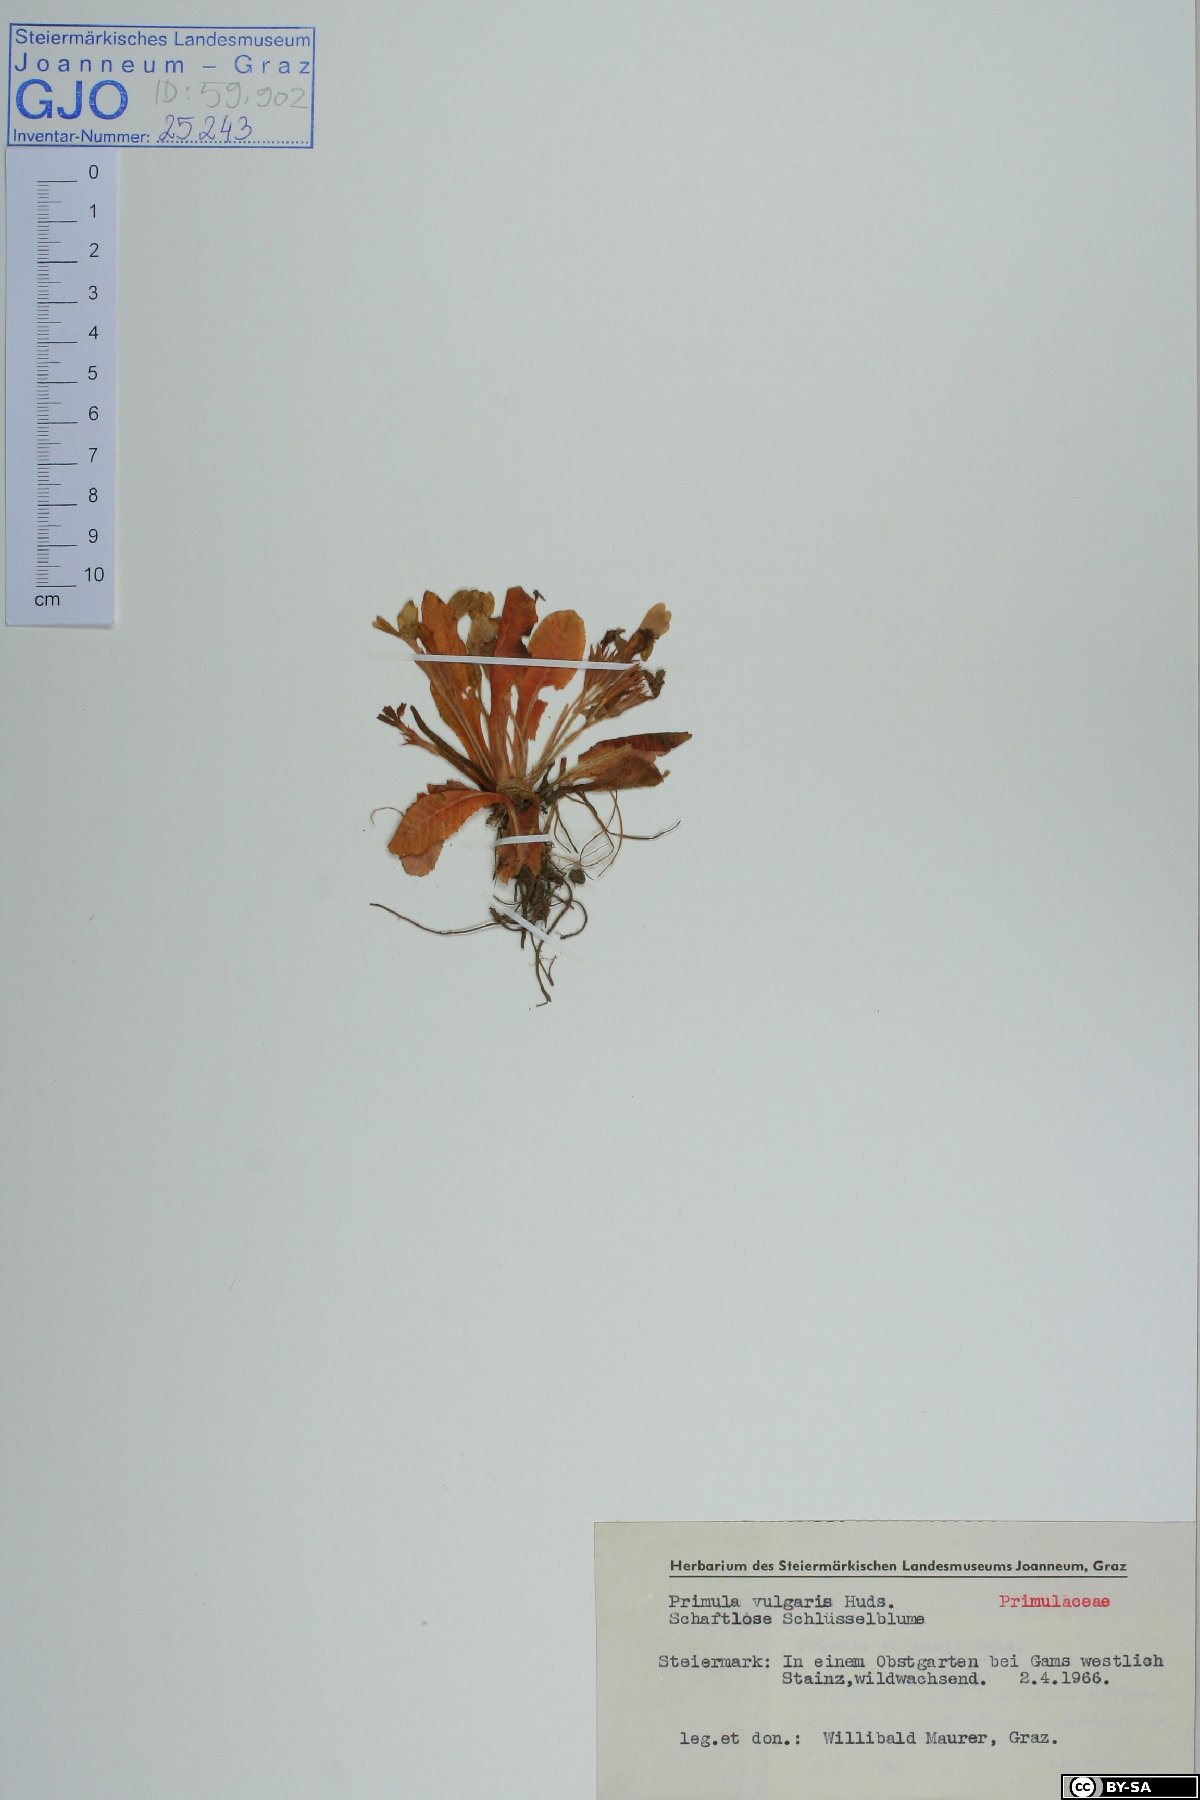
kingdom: Plantae
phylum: Tracheophyta
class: Magnoliopsida
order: Ericales
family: Primulaceae
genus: Primula
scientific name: Primula vulgaris
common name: Primrose
